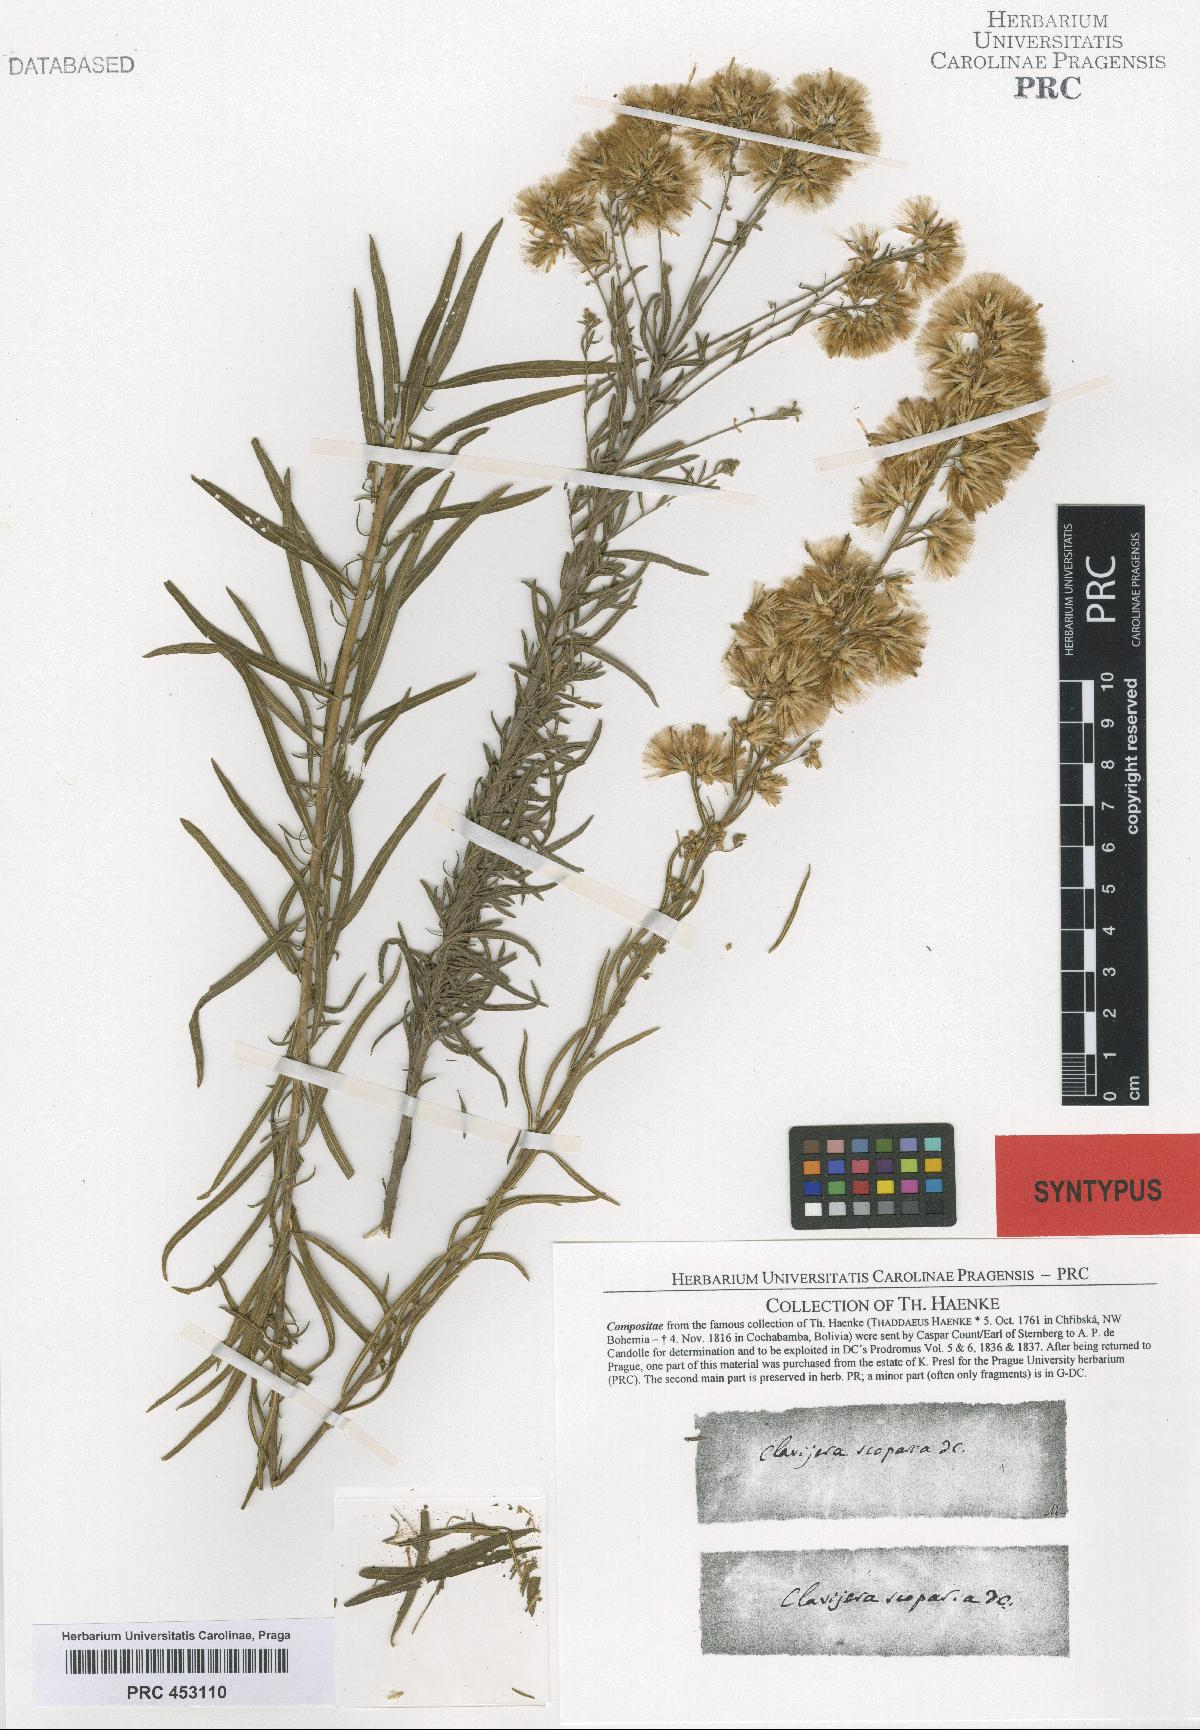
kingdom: Plantae
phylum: Tracheophyta
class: Magnoliopsida
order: Asterales
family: Asteraceae
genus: Brickellia
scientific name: Brickellia scoparia
